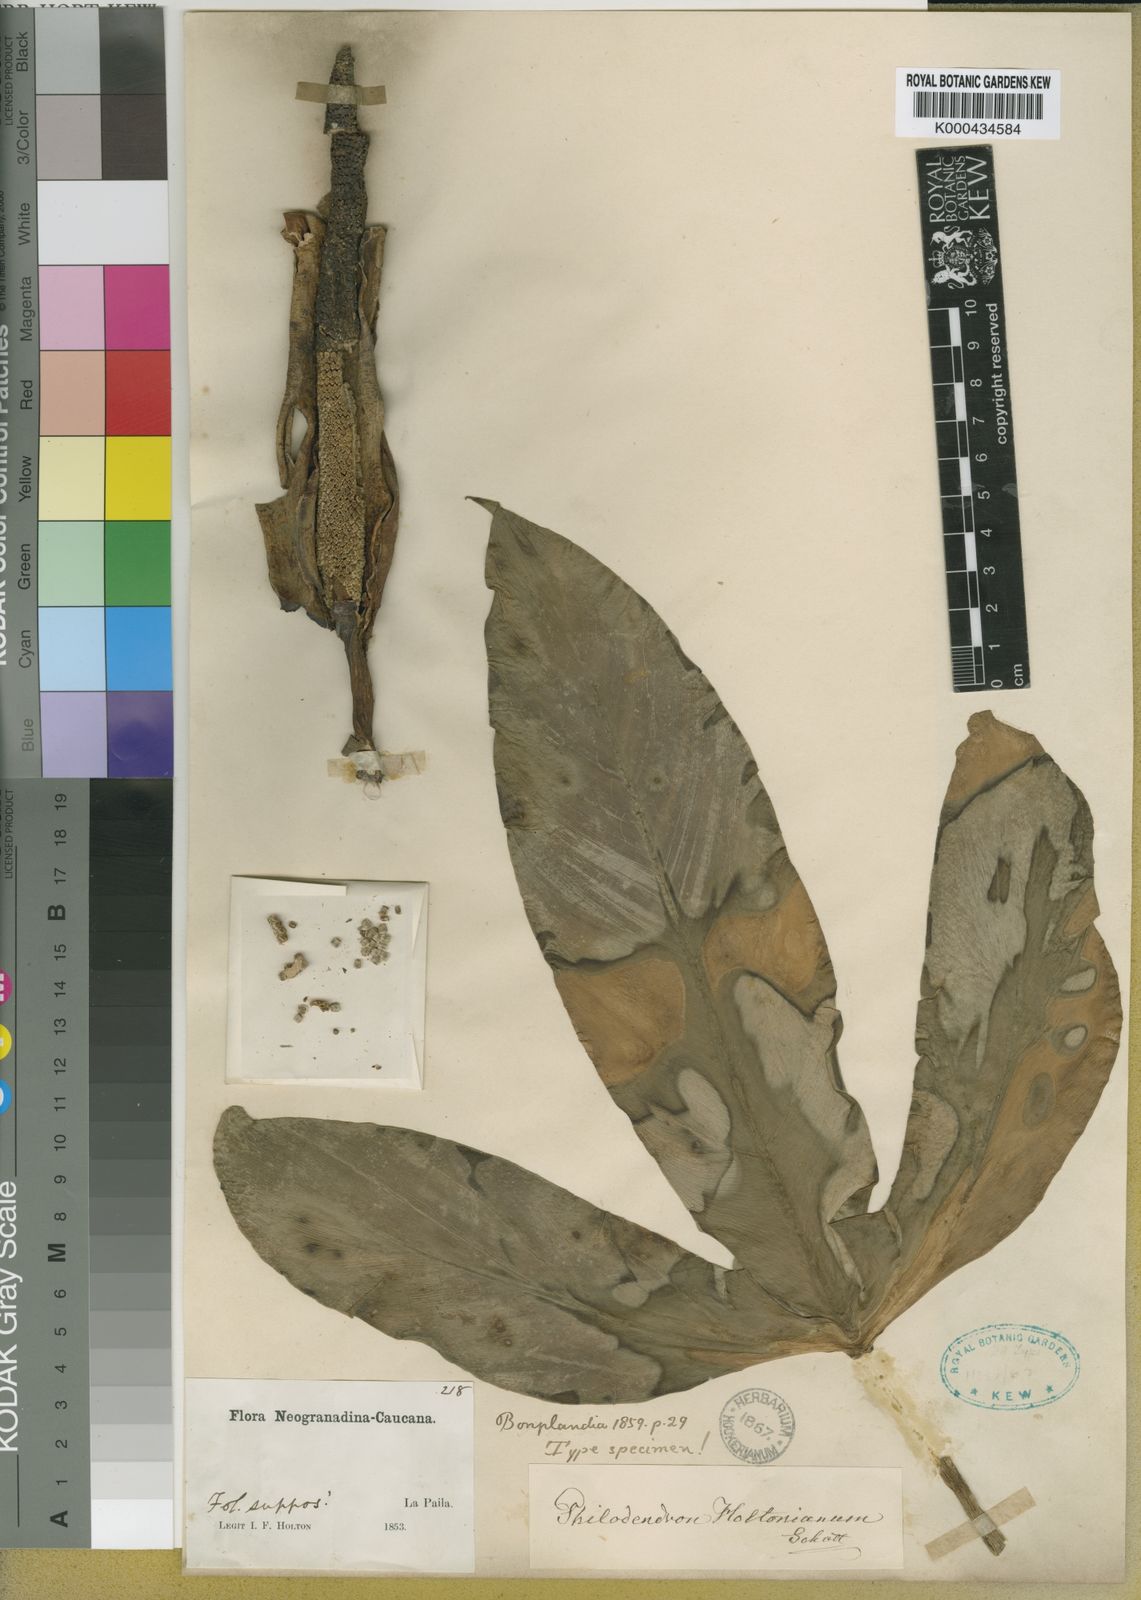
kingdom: Plantae
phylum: Tracheophyta
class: Liliopsida
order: Alismatales
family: Araceae
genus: Philodendron
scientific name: Philodendron tripartitum
